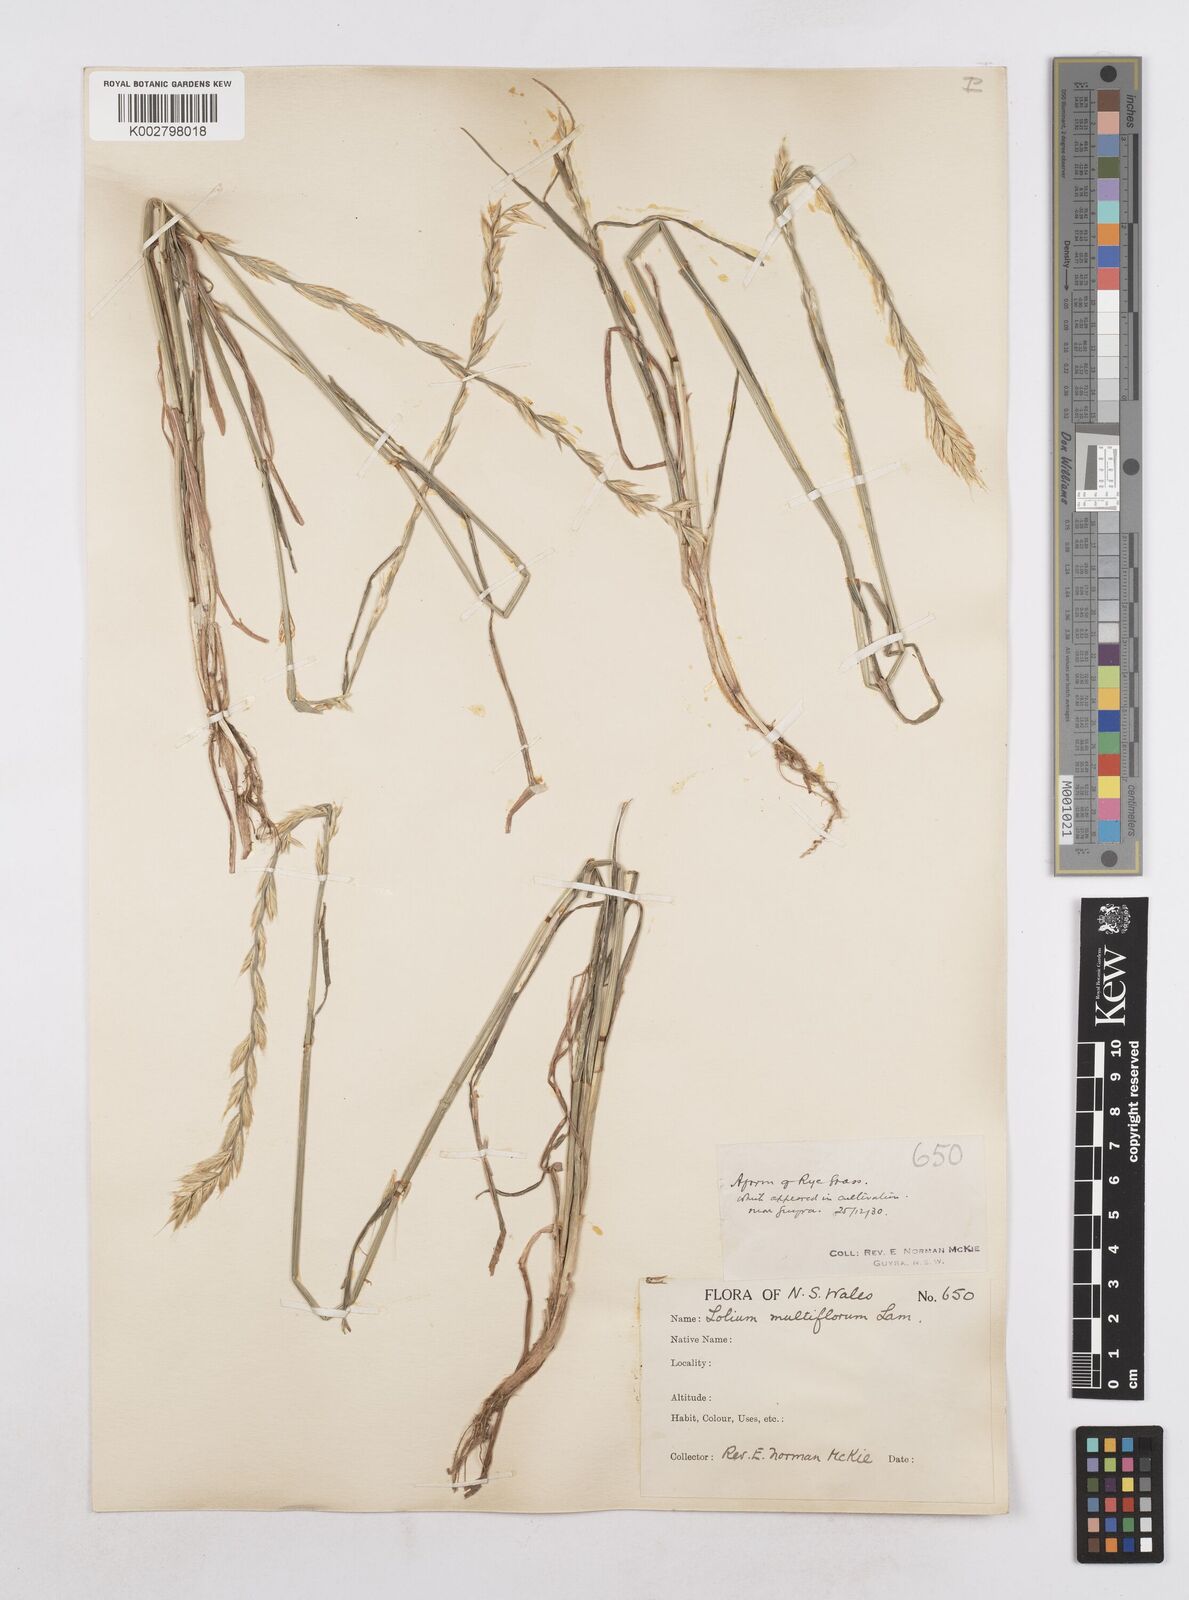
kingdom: Plantae
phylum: Tracheophyta
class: Liliopsida
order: Poales
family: Poaceae
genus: Lolium
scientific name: Lolium multiflorum
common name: Annual ryegrass
